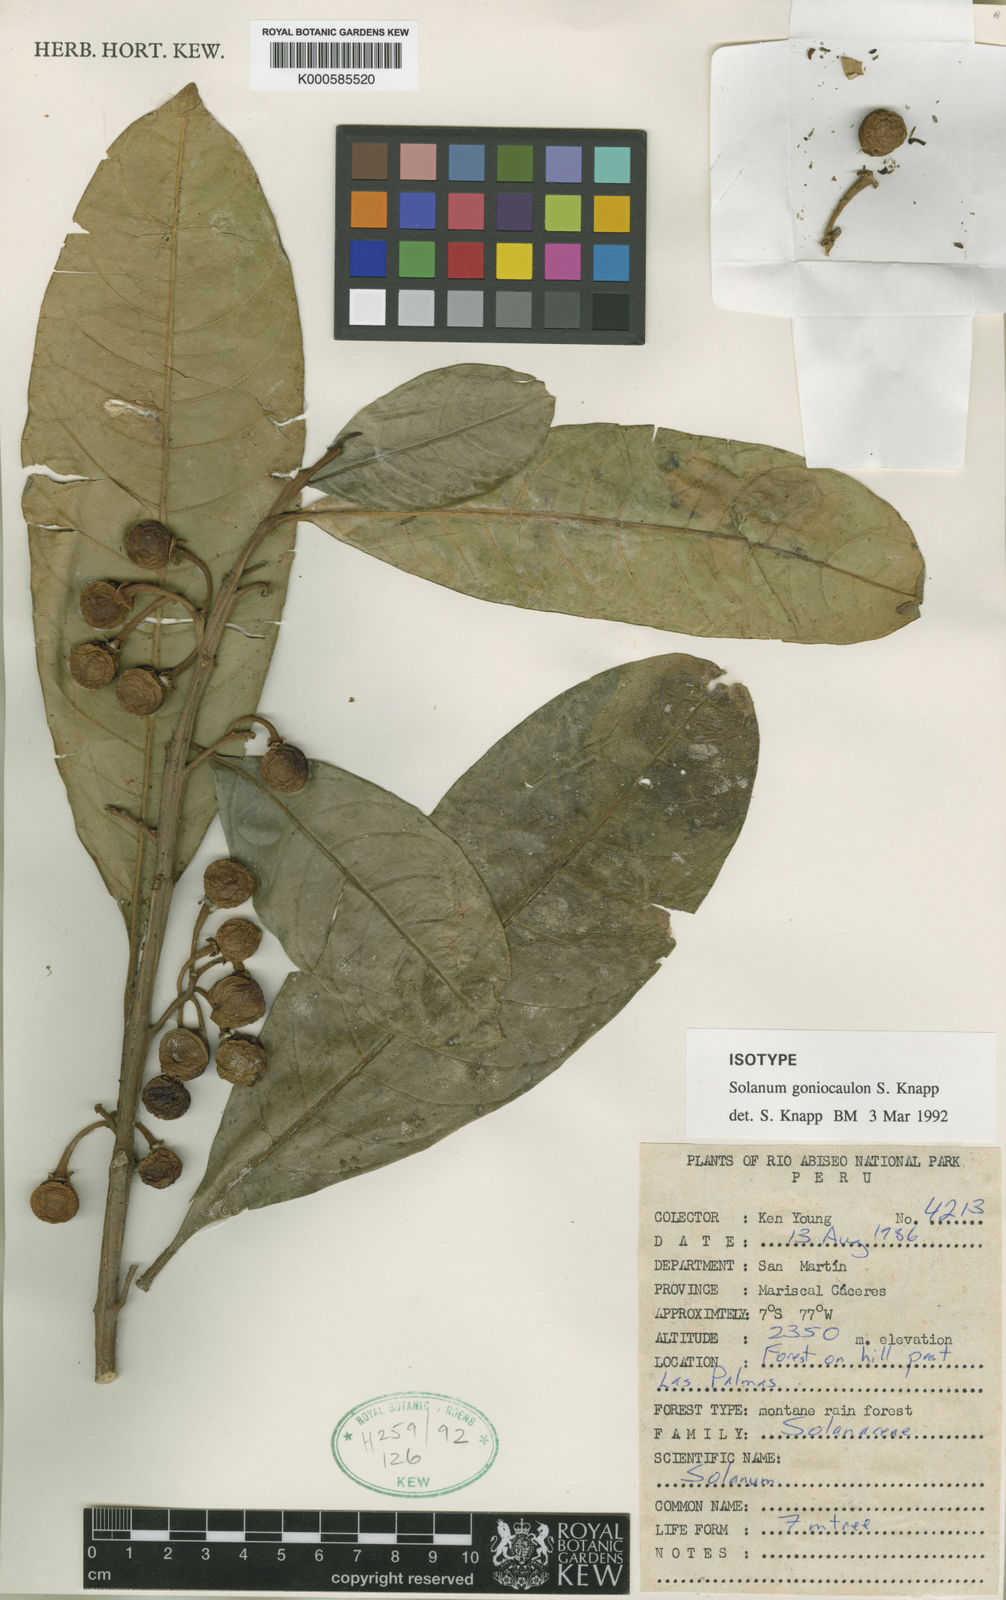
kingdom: Plantae
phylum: Tracheophyta
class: Magnoliopsida
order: Solanales
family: Solanaceae
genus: Solanum
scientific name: Solanum goniocaulon
